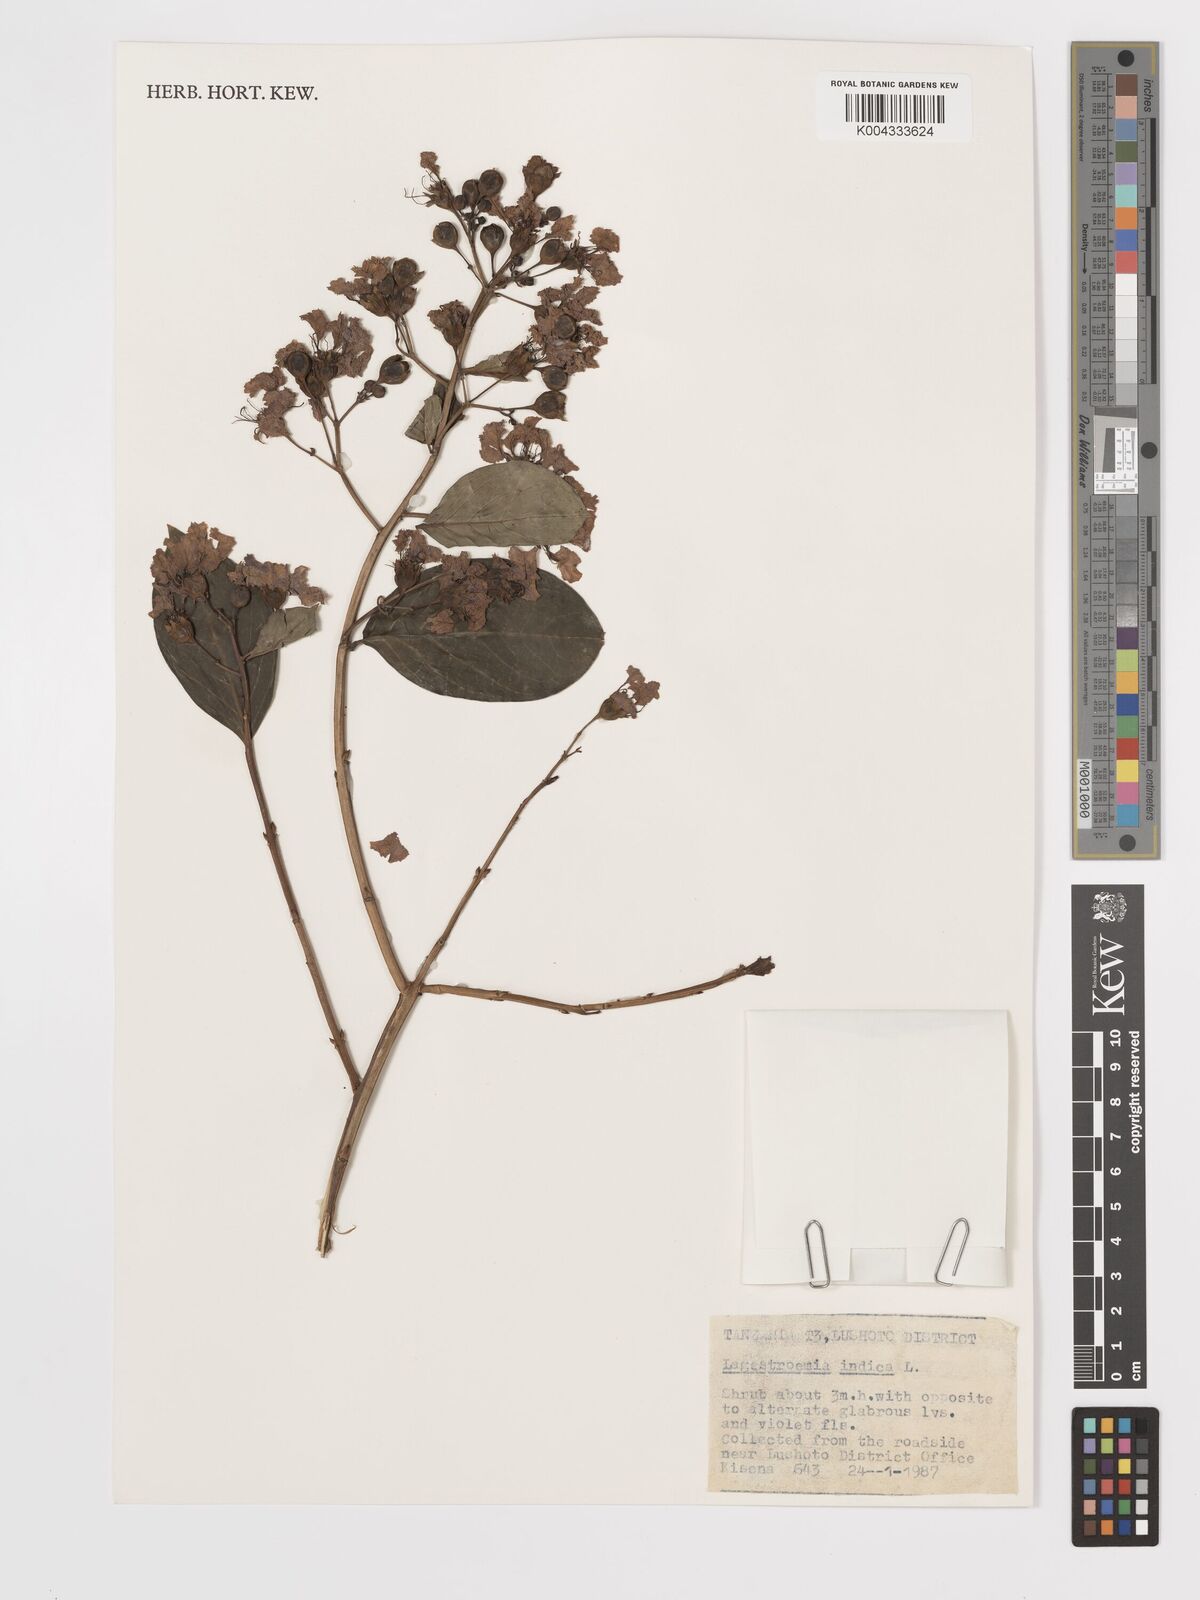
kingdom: Plantae
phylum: Tracheophyta
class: Magnoliopsida
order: Myrtales
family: Lythraceae
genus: Lagerstroemia
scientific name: Lagerstroemia indica
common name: Crape-myrtle
